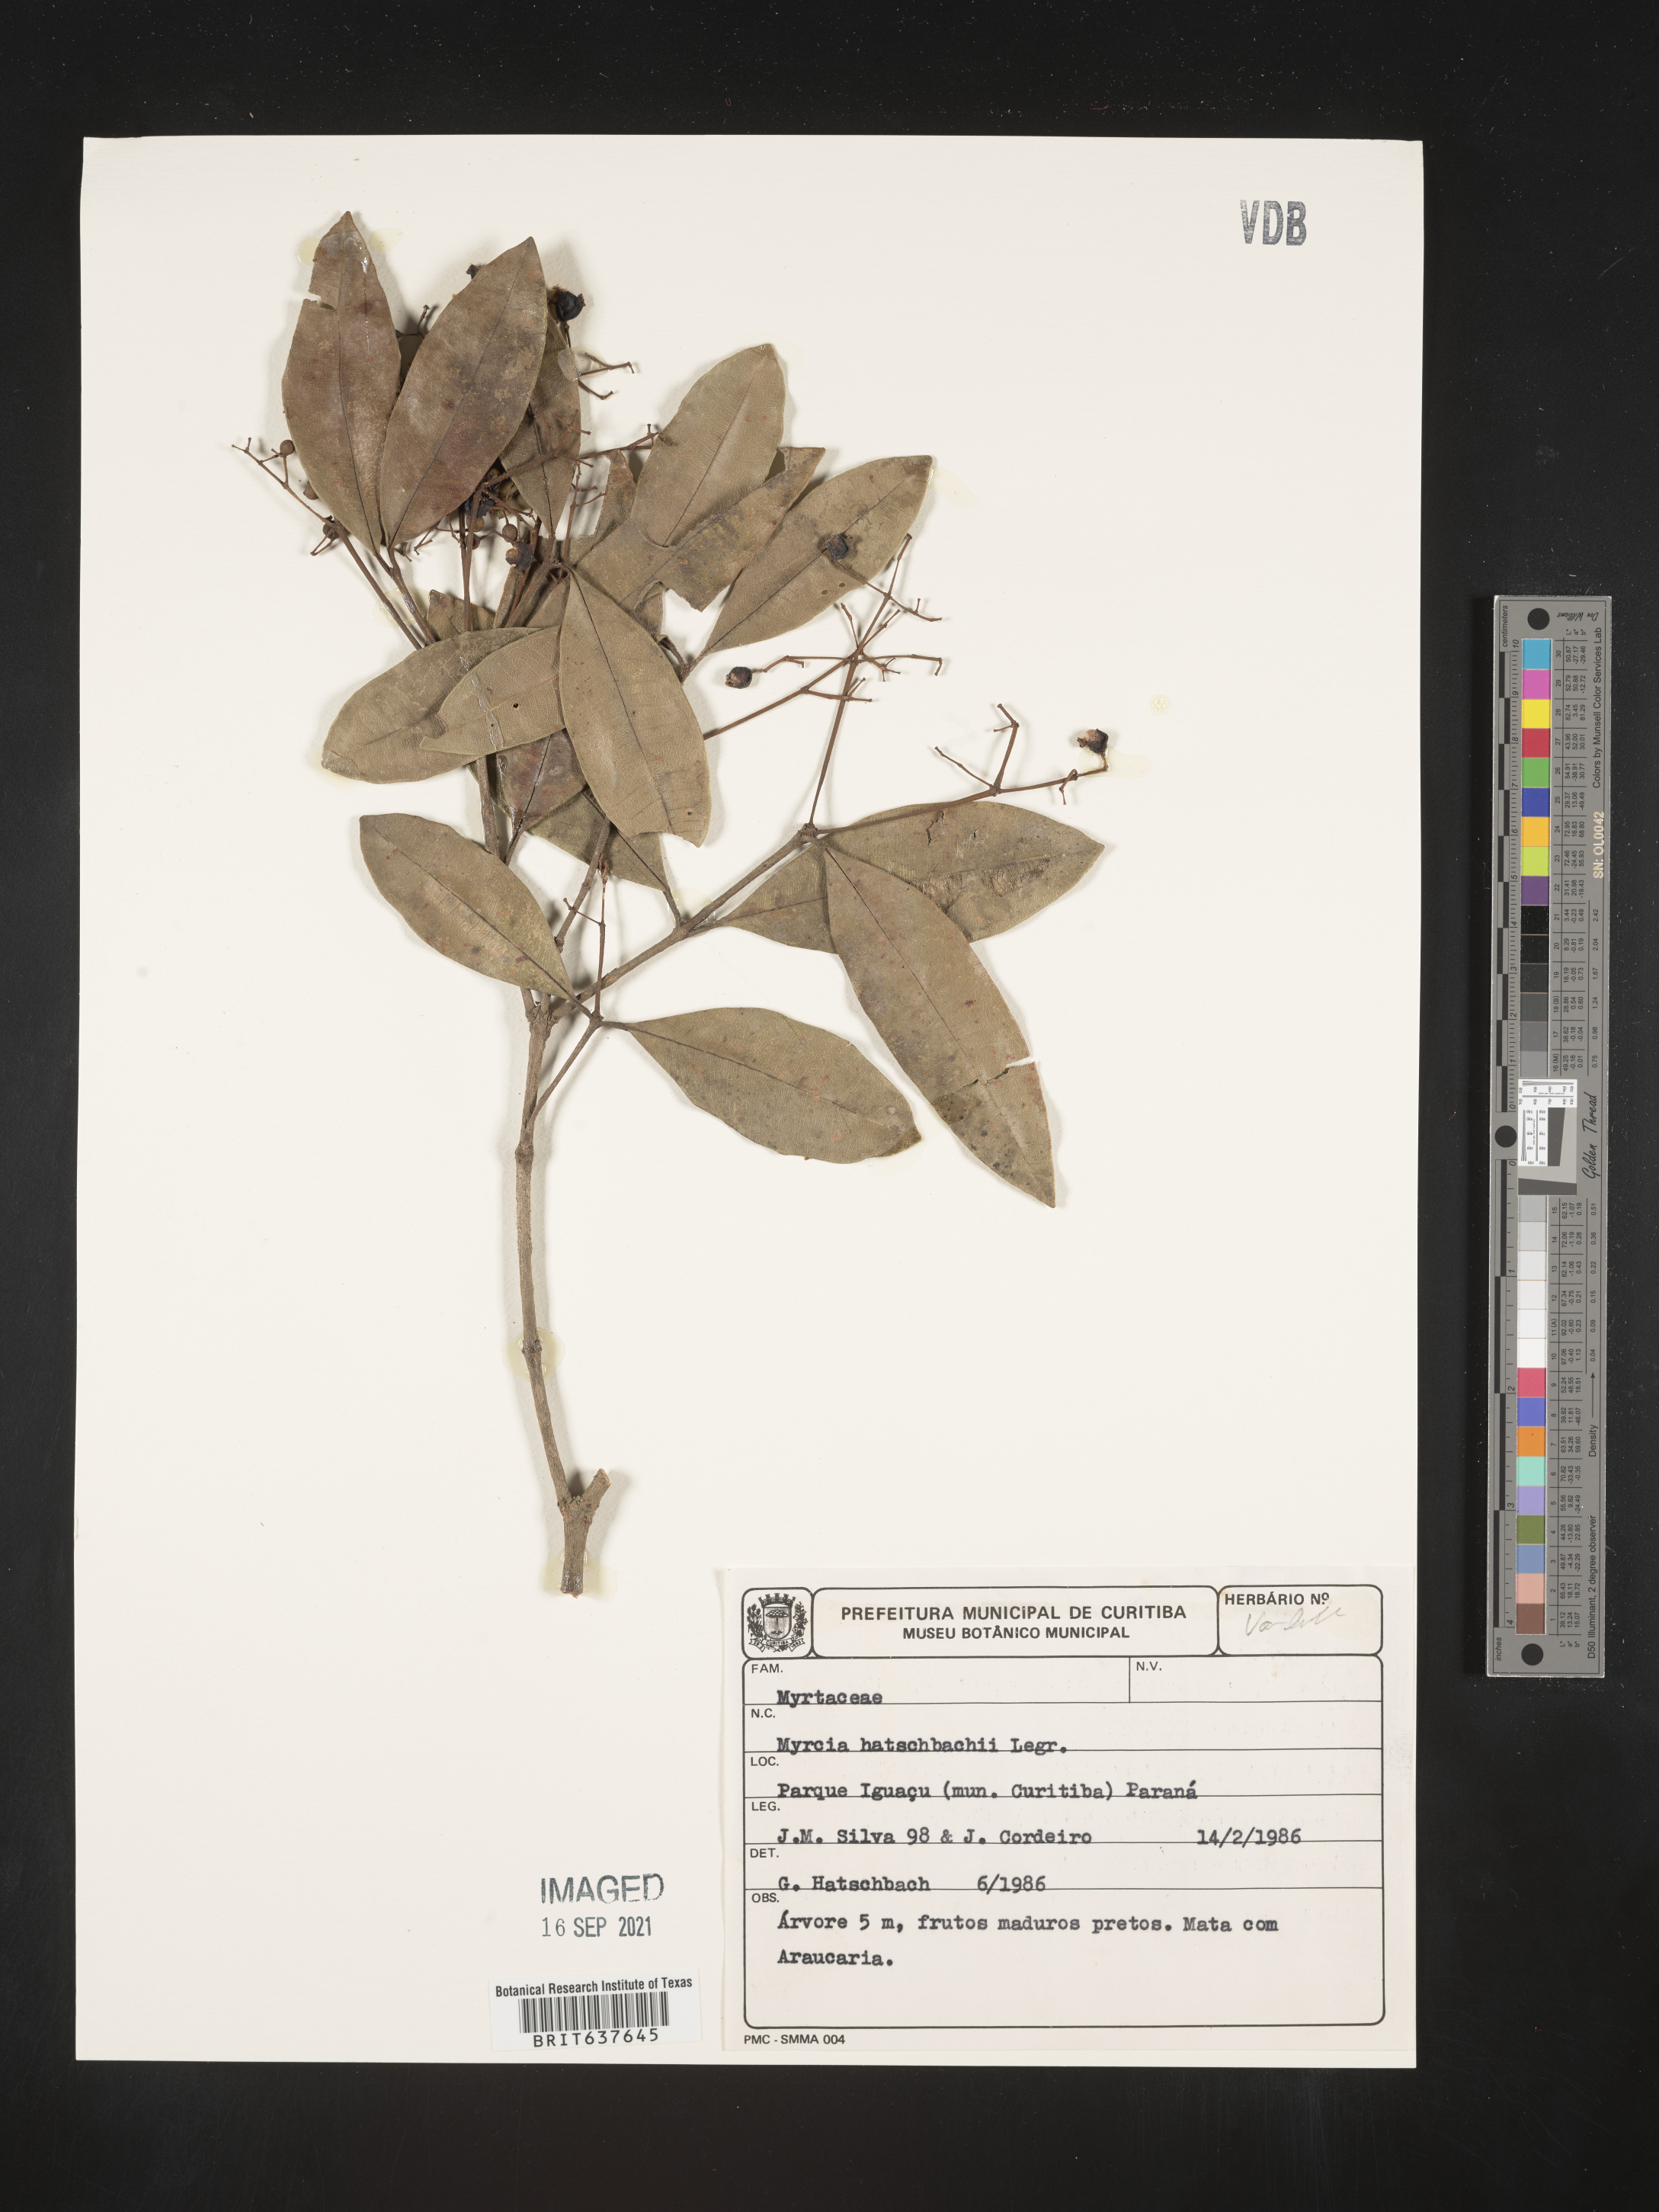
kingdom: Plantae
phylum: Tracheophyta
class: Magnoliopsida
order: Myrtales
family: Myrtaceae
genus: Myrcia
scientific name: Myrcia
